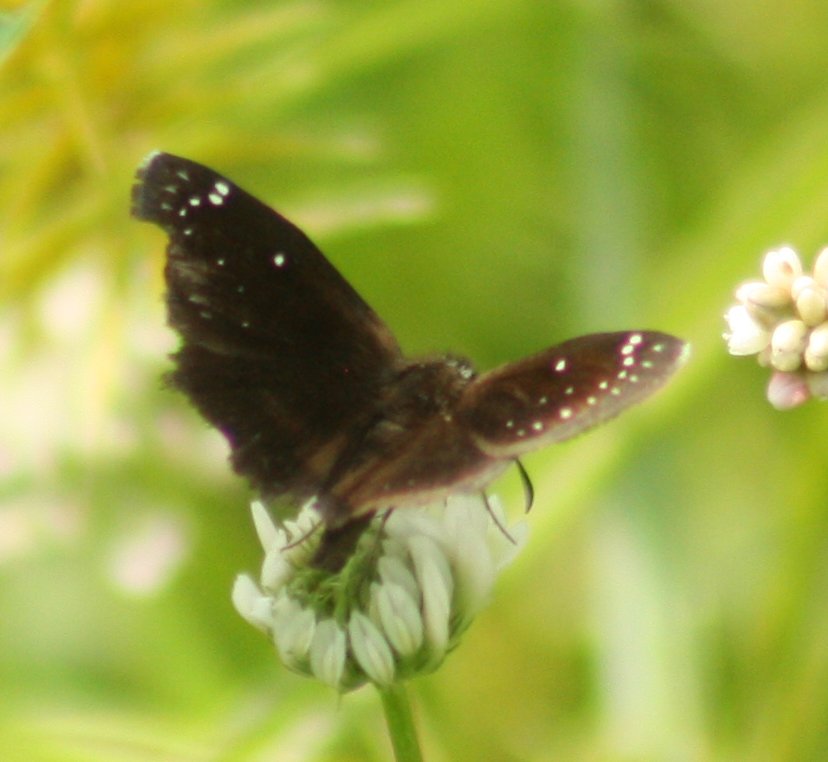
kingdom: Animalia
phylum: Arthropoda
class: Insecta
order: Lepidoptera
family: Hesperiidae
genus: Pholisora
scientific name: Pholisora catullus
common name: Common Sootywing
